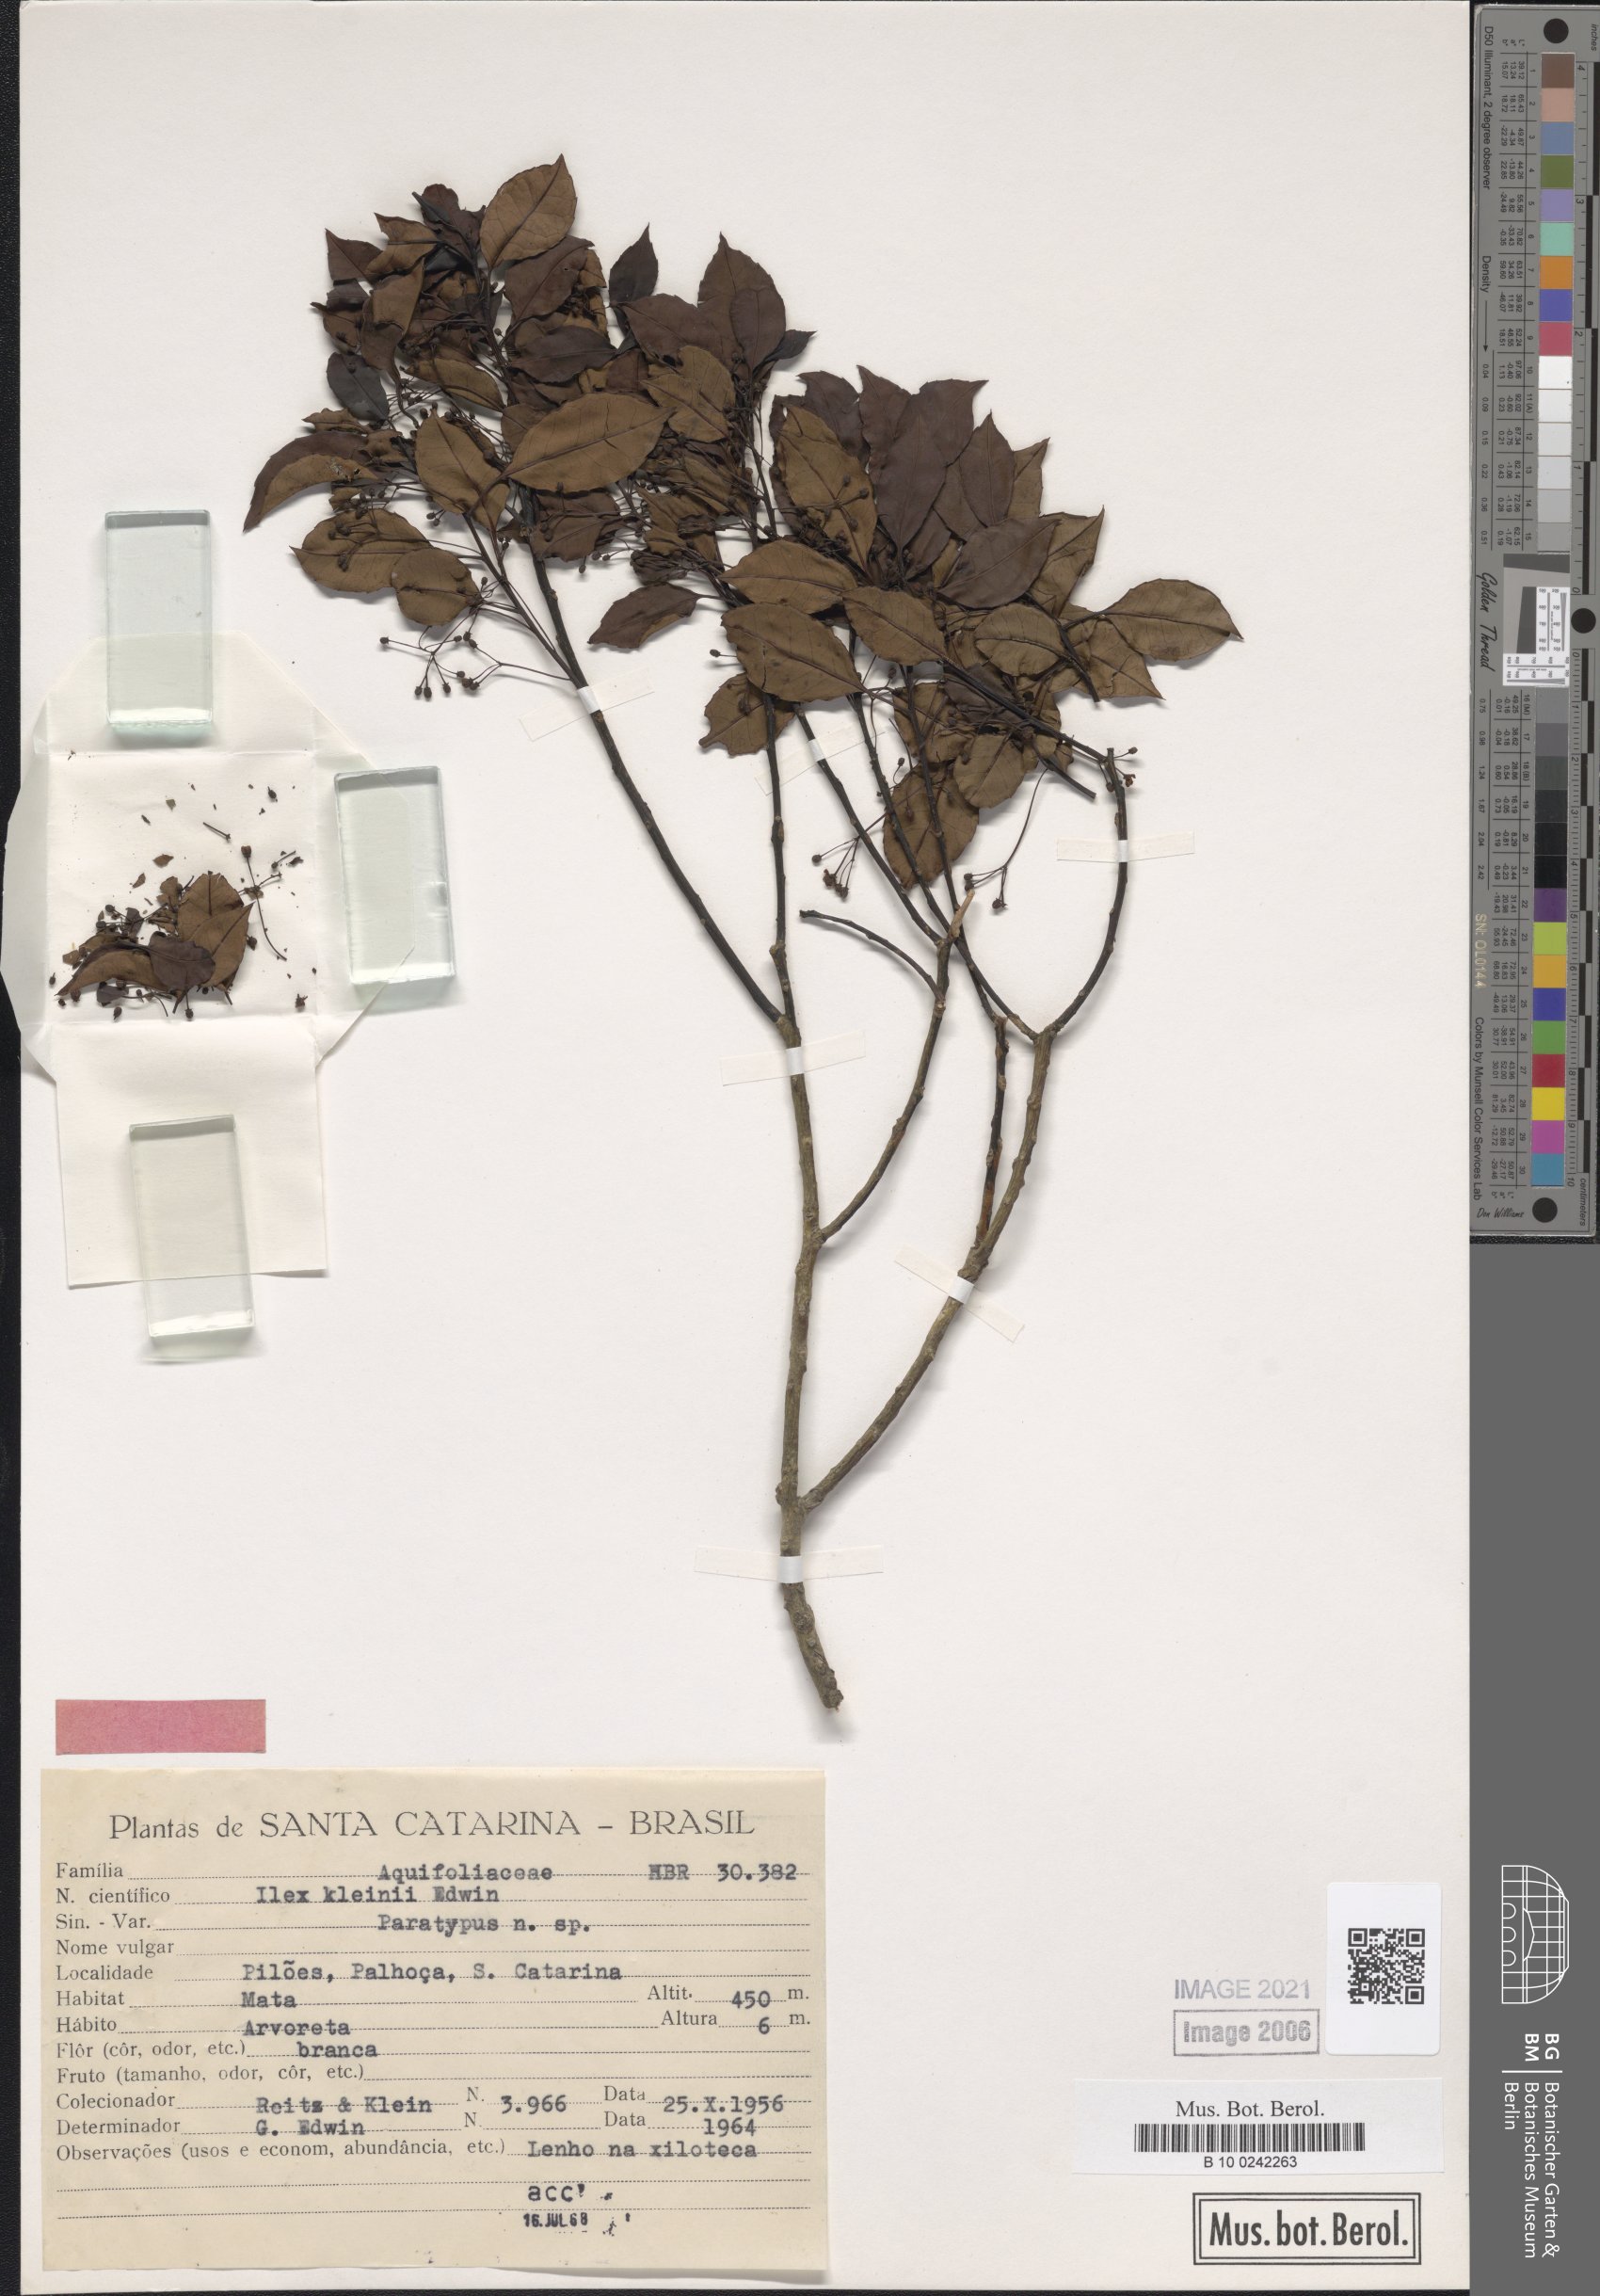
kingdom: Plantae
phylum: Tracheophyta
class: Magnoliopsida
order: Aquifoliales
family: Aquifoliaceae
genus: Ilex
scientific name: Ilex taubertiana
